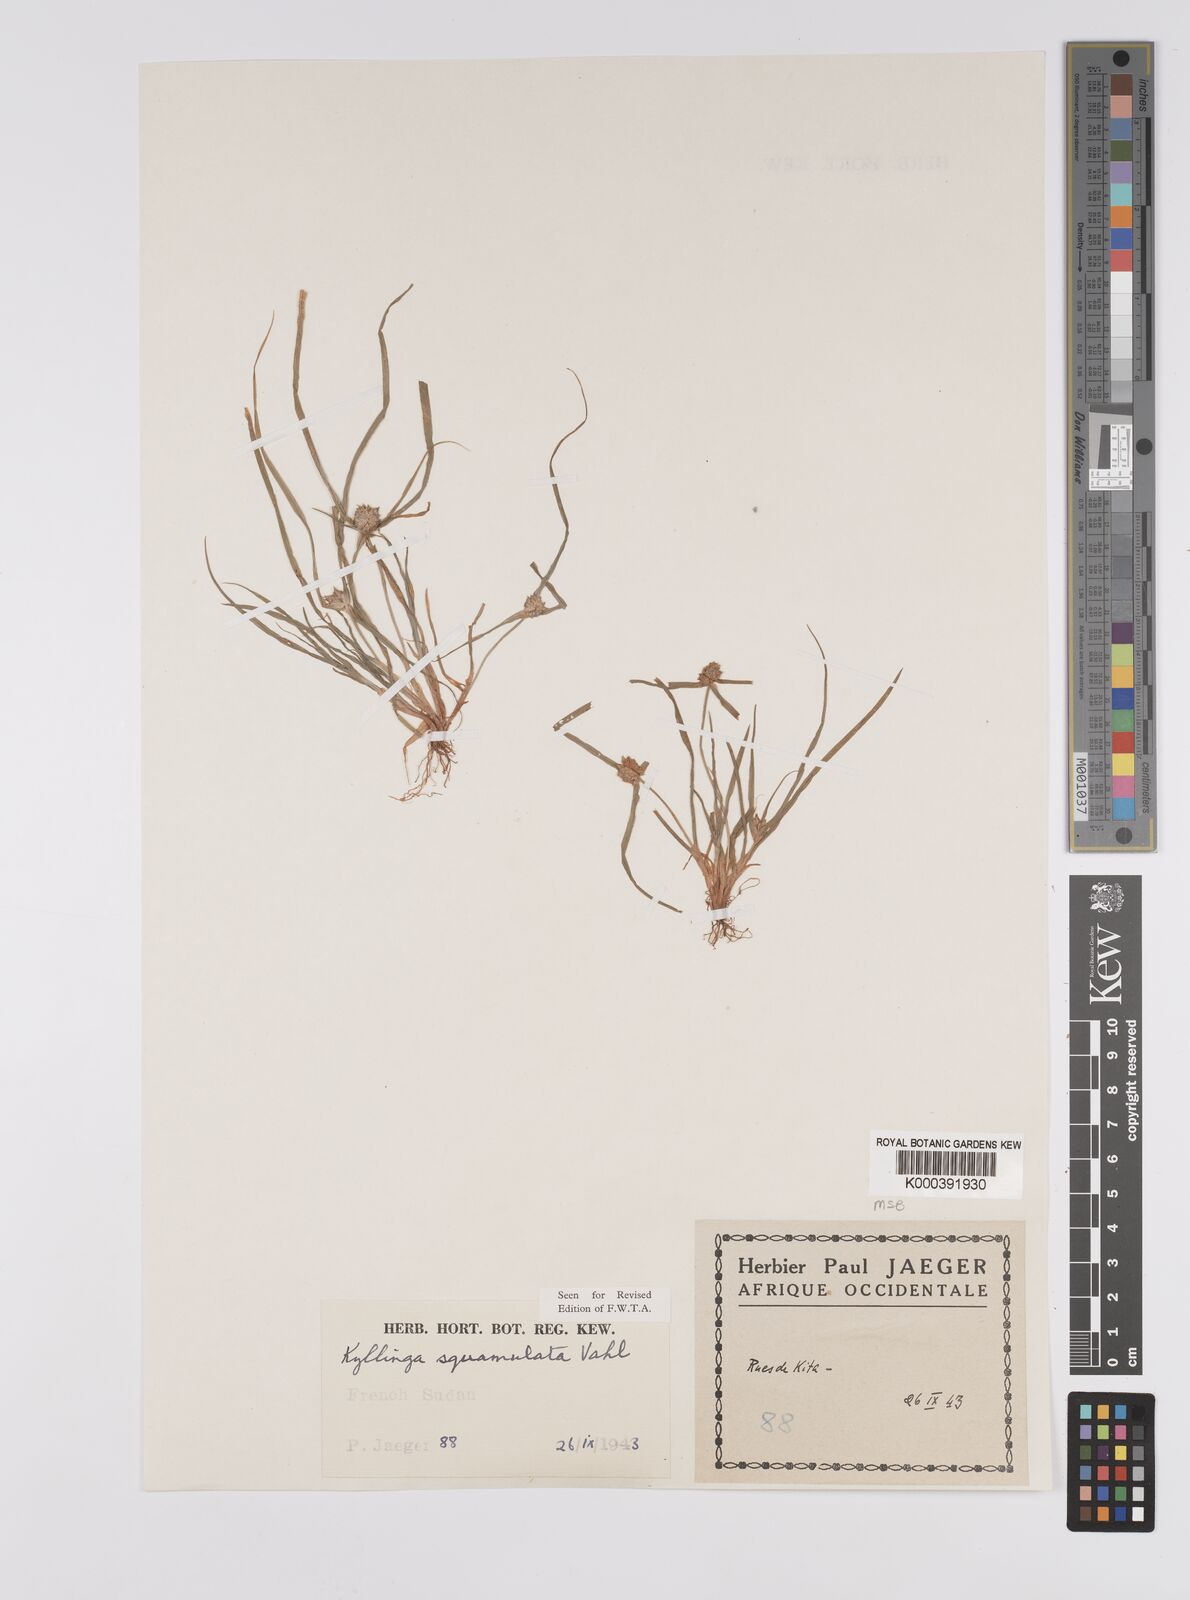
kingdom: Plantae
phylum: Tracheophyta
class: Liliopsida
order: Poales
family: Cyperaceae
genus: Cyperus
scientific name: Cyperus metzii
